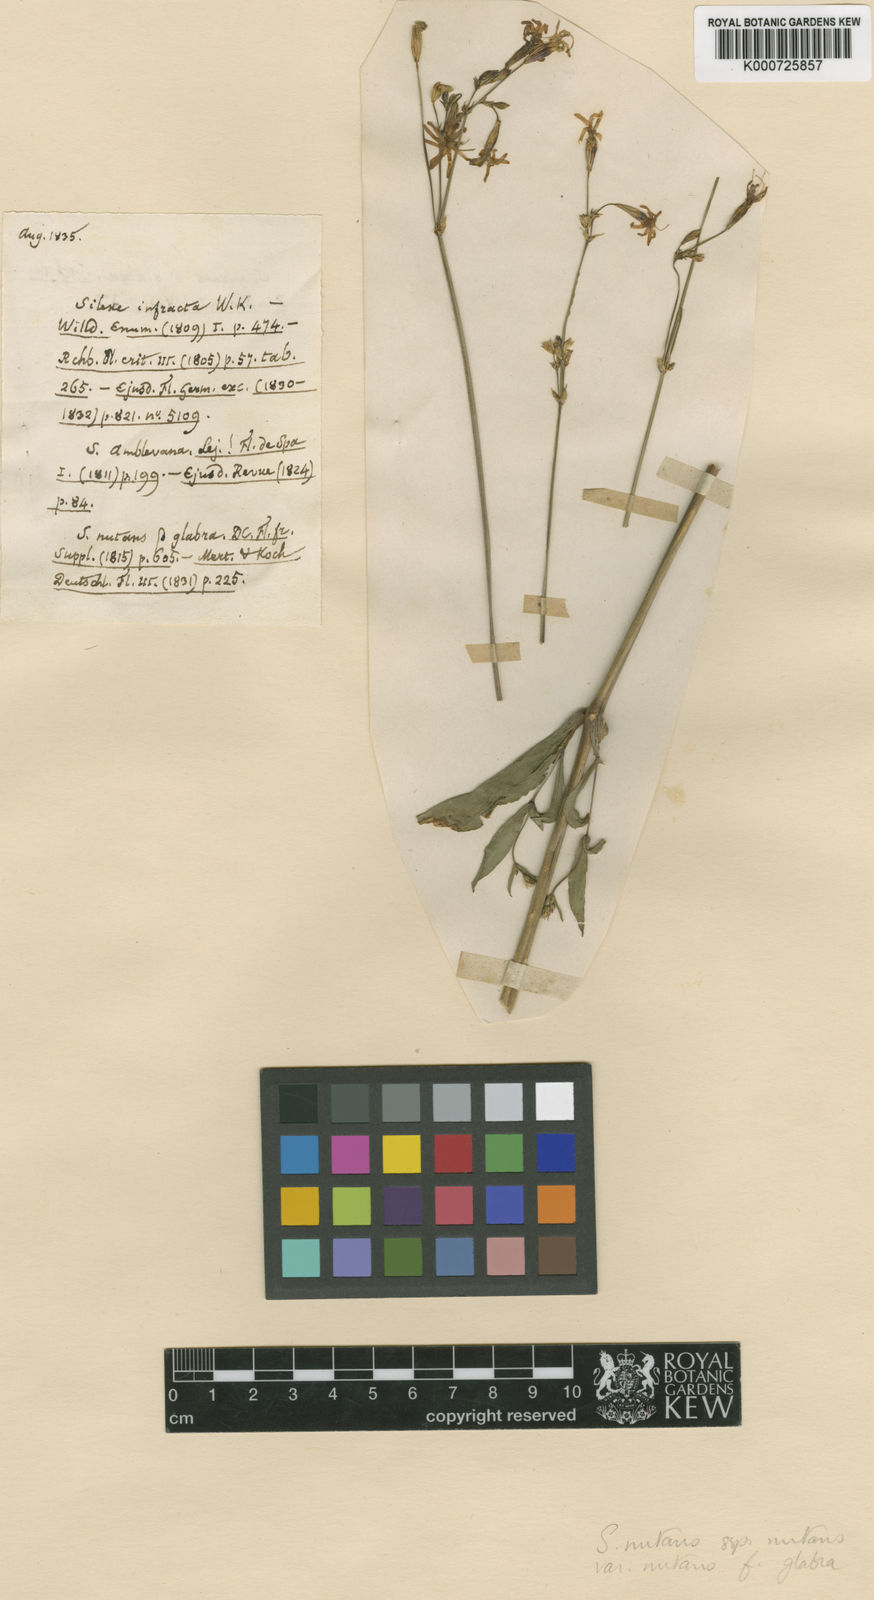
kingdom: Plantae
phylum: Tracheophyta
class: Magnoliopsida
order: Caryophyllales
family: Caryophyllaceae
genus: Silene
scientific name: Silene nutans
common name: Nottingham catchfly
